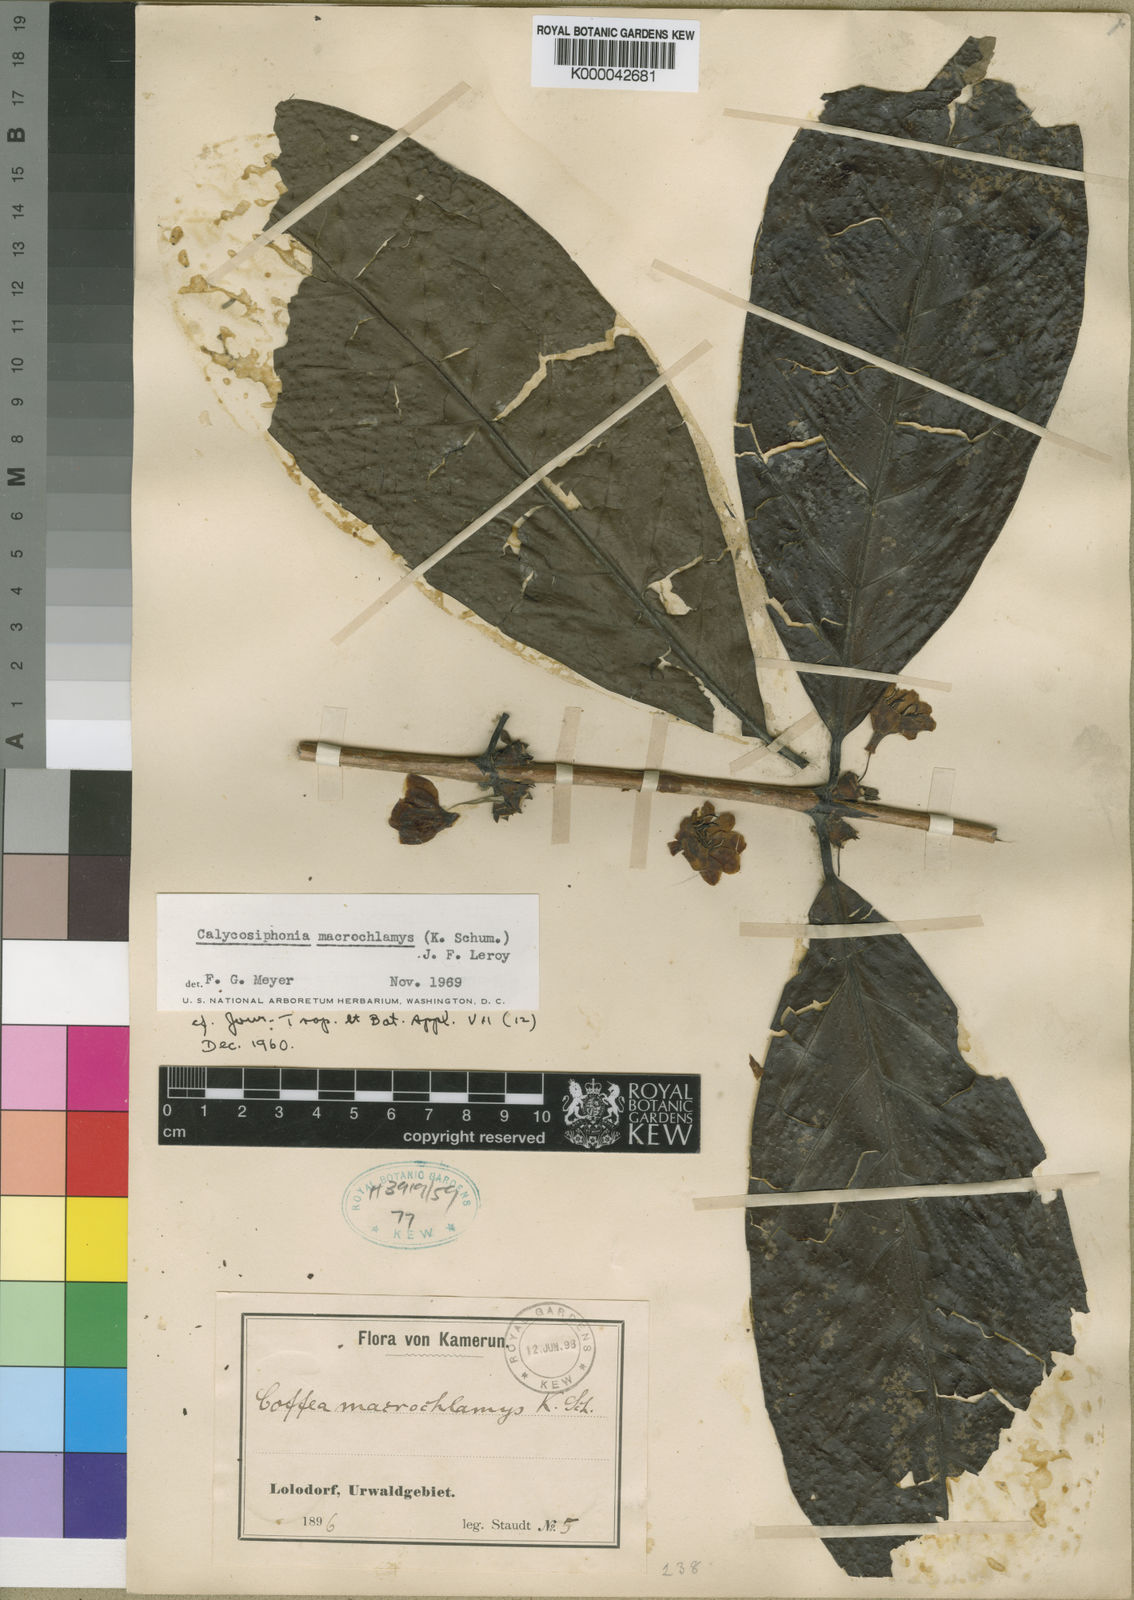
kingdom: Plantae
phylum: Tracheophyta
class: Magnoliopsida
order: Gentianales
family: Rubiaceae
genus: Calycosiphonia
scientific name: Calycosiphonia macrochlamys
